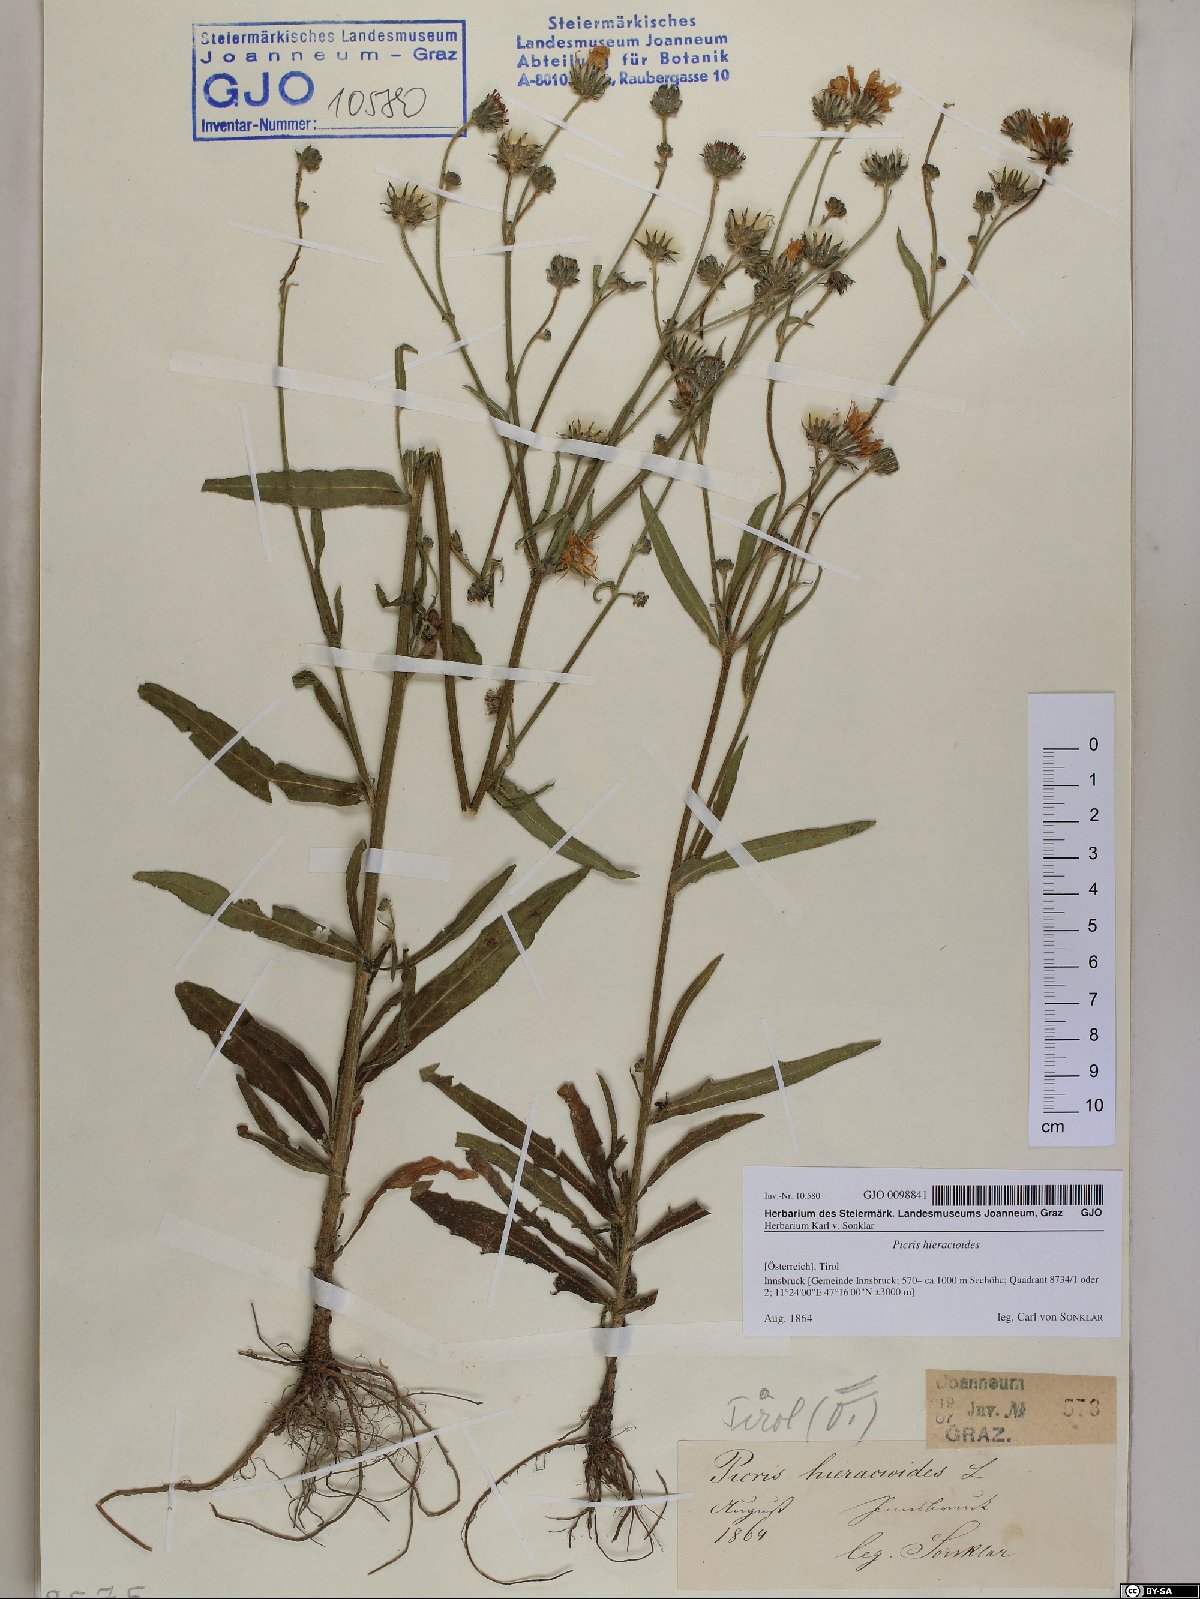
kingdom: Plantae
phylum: Tracheophyta
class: Magnoliopsida
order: Asterales
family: Asteraceae
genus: Picris
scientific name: Picris hieracioides
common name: Hawkweed oxtongue
